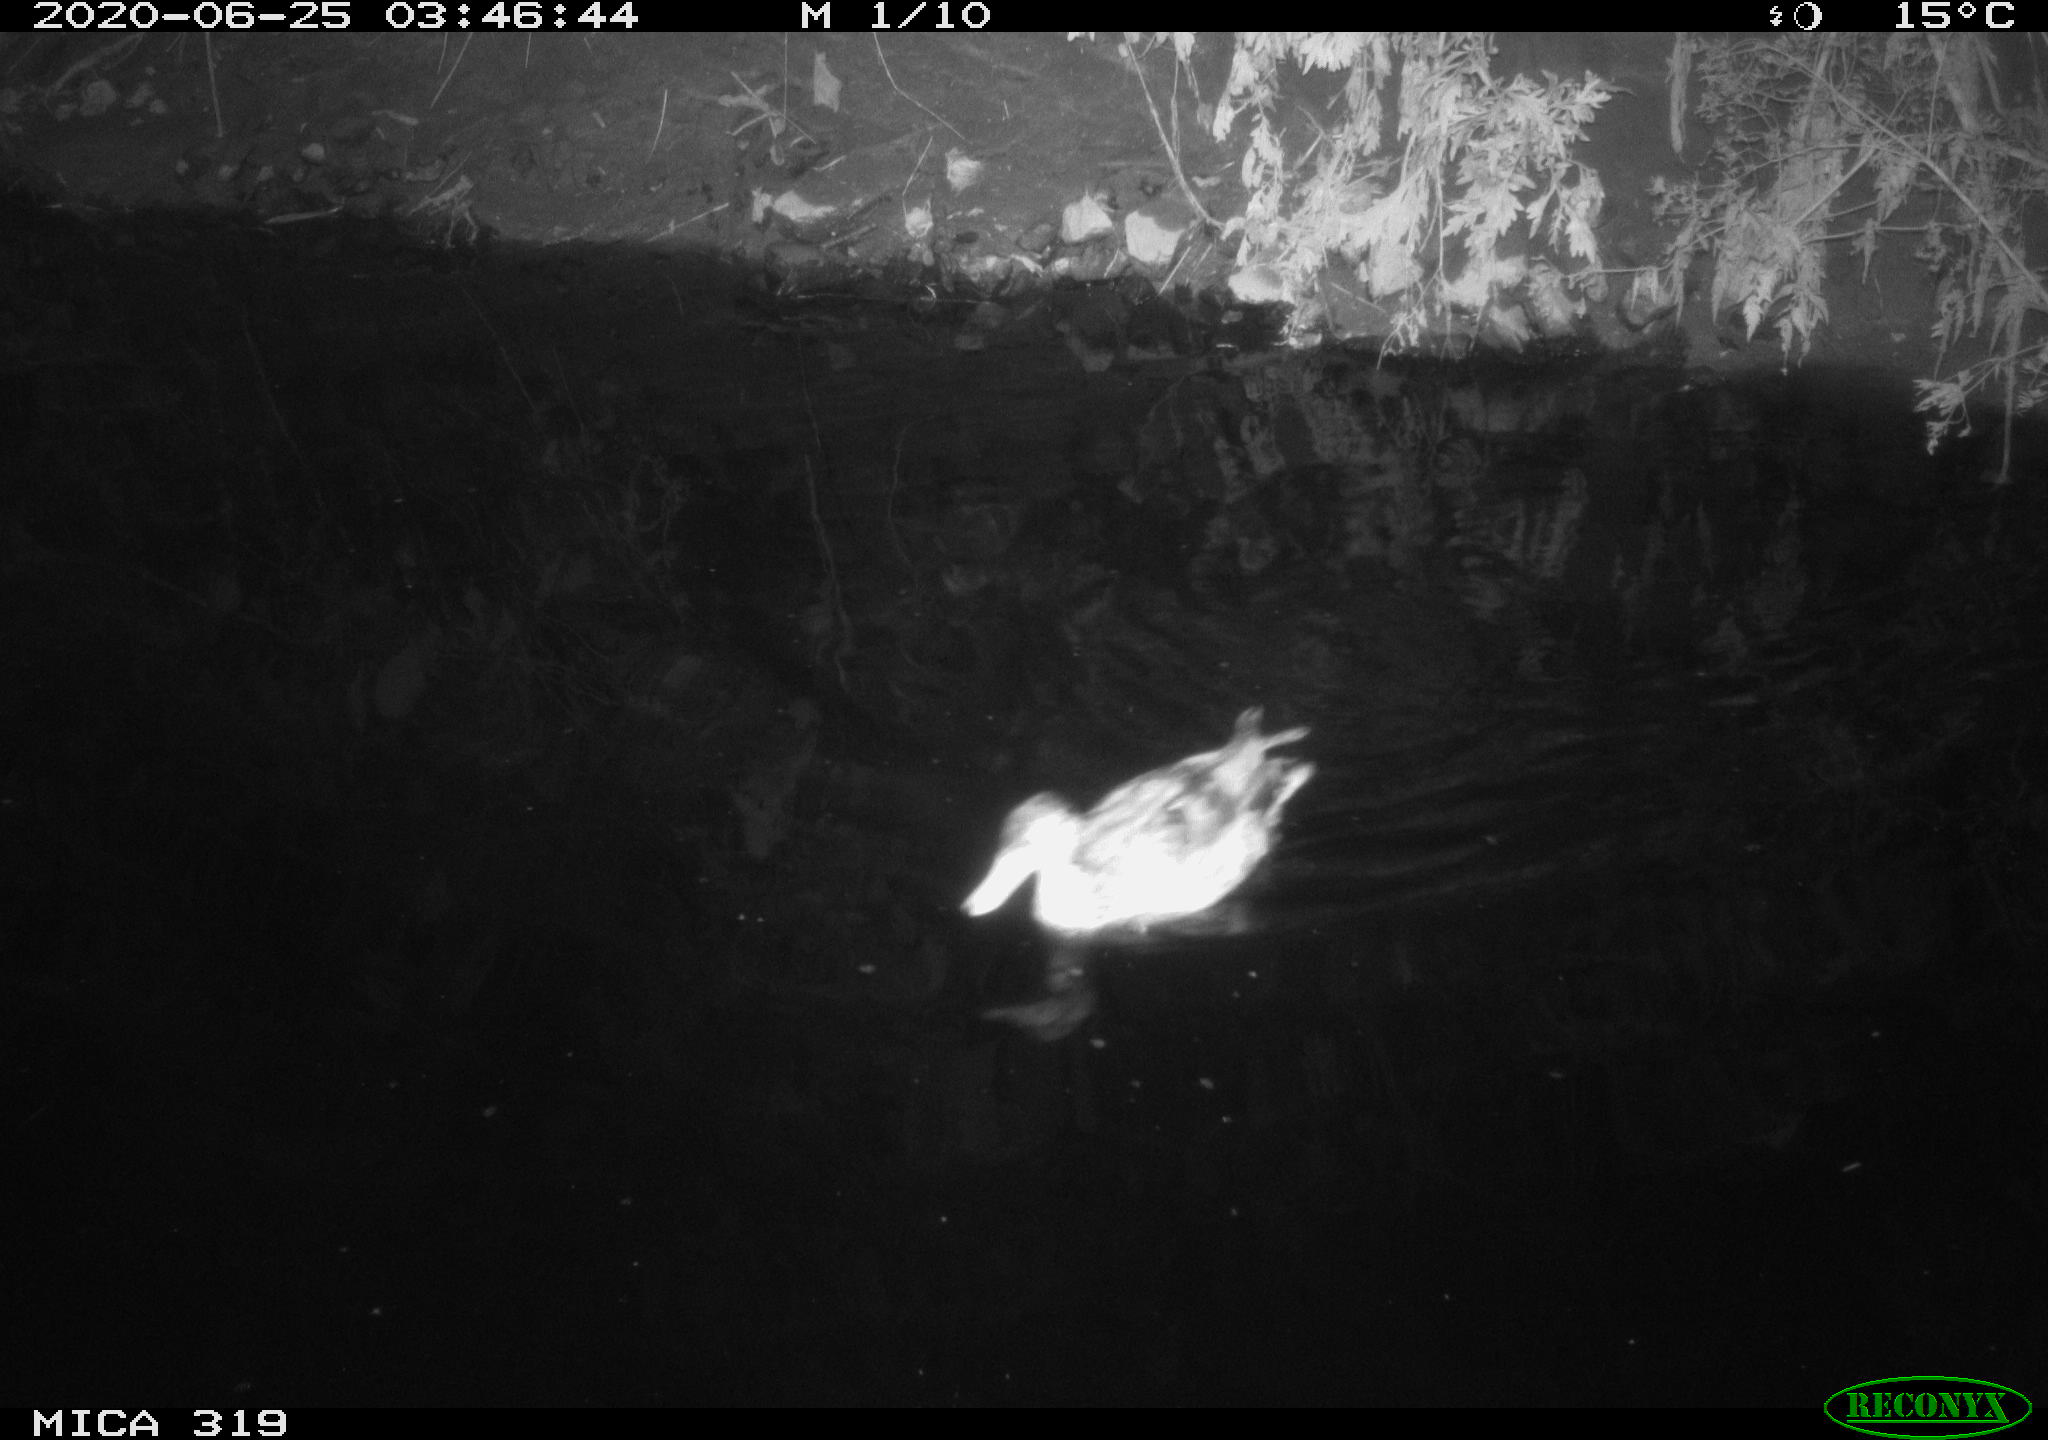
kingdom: Animalia
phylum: Chordata
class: Aves
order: Anseriformes
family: Anatidae
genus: Anas
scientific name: Anas platyrhynchos
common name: Mallard
